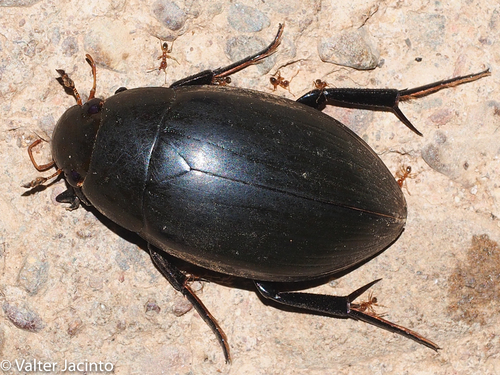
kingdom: Animalia
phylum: Arthropoda
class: Insecta
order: Coleoptera
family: Hydrophilidae
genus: Hydrophilus
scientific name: Hydrophilus pistaceus
